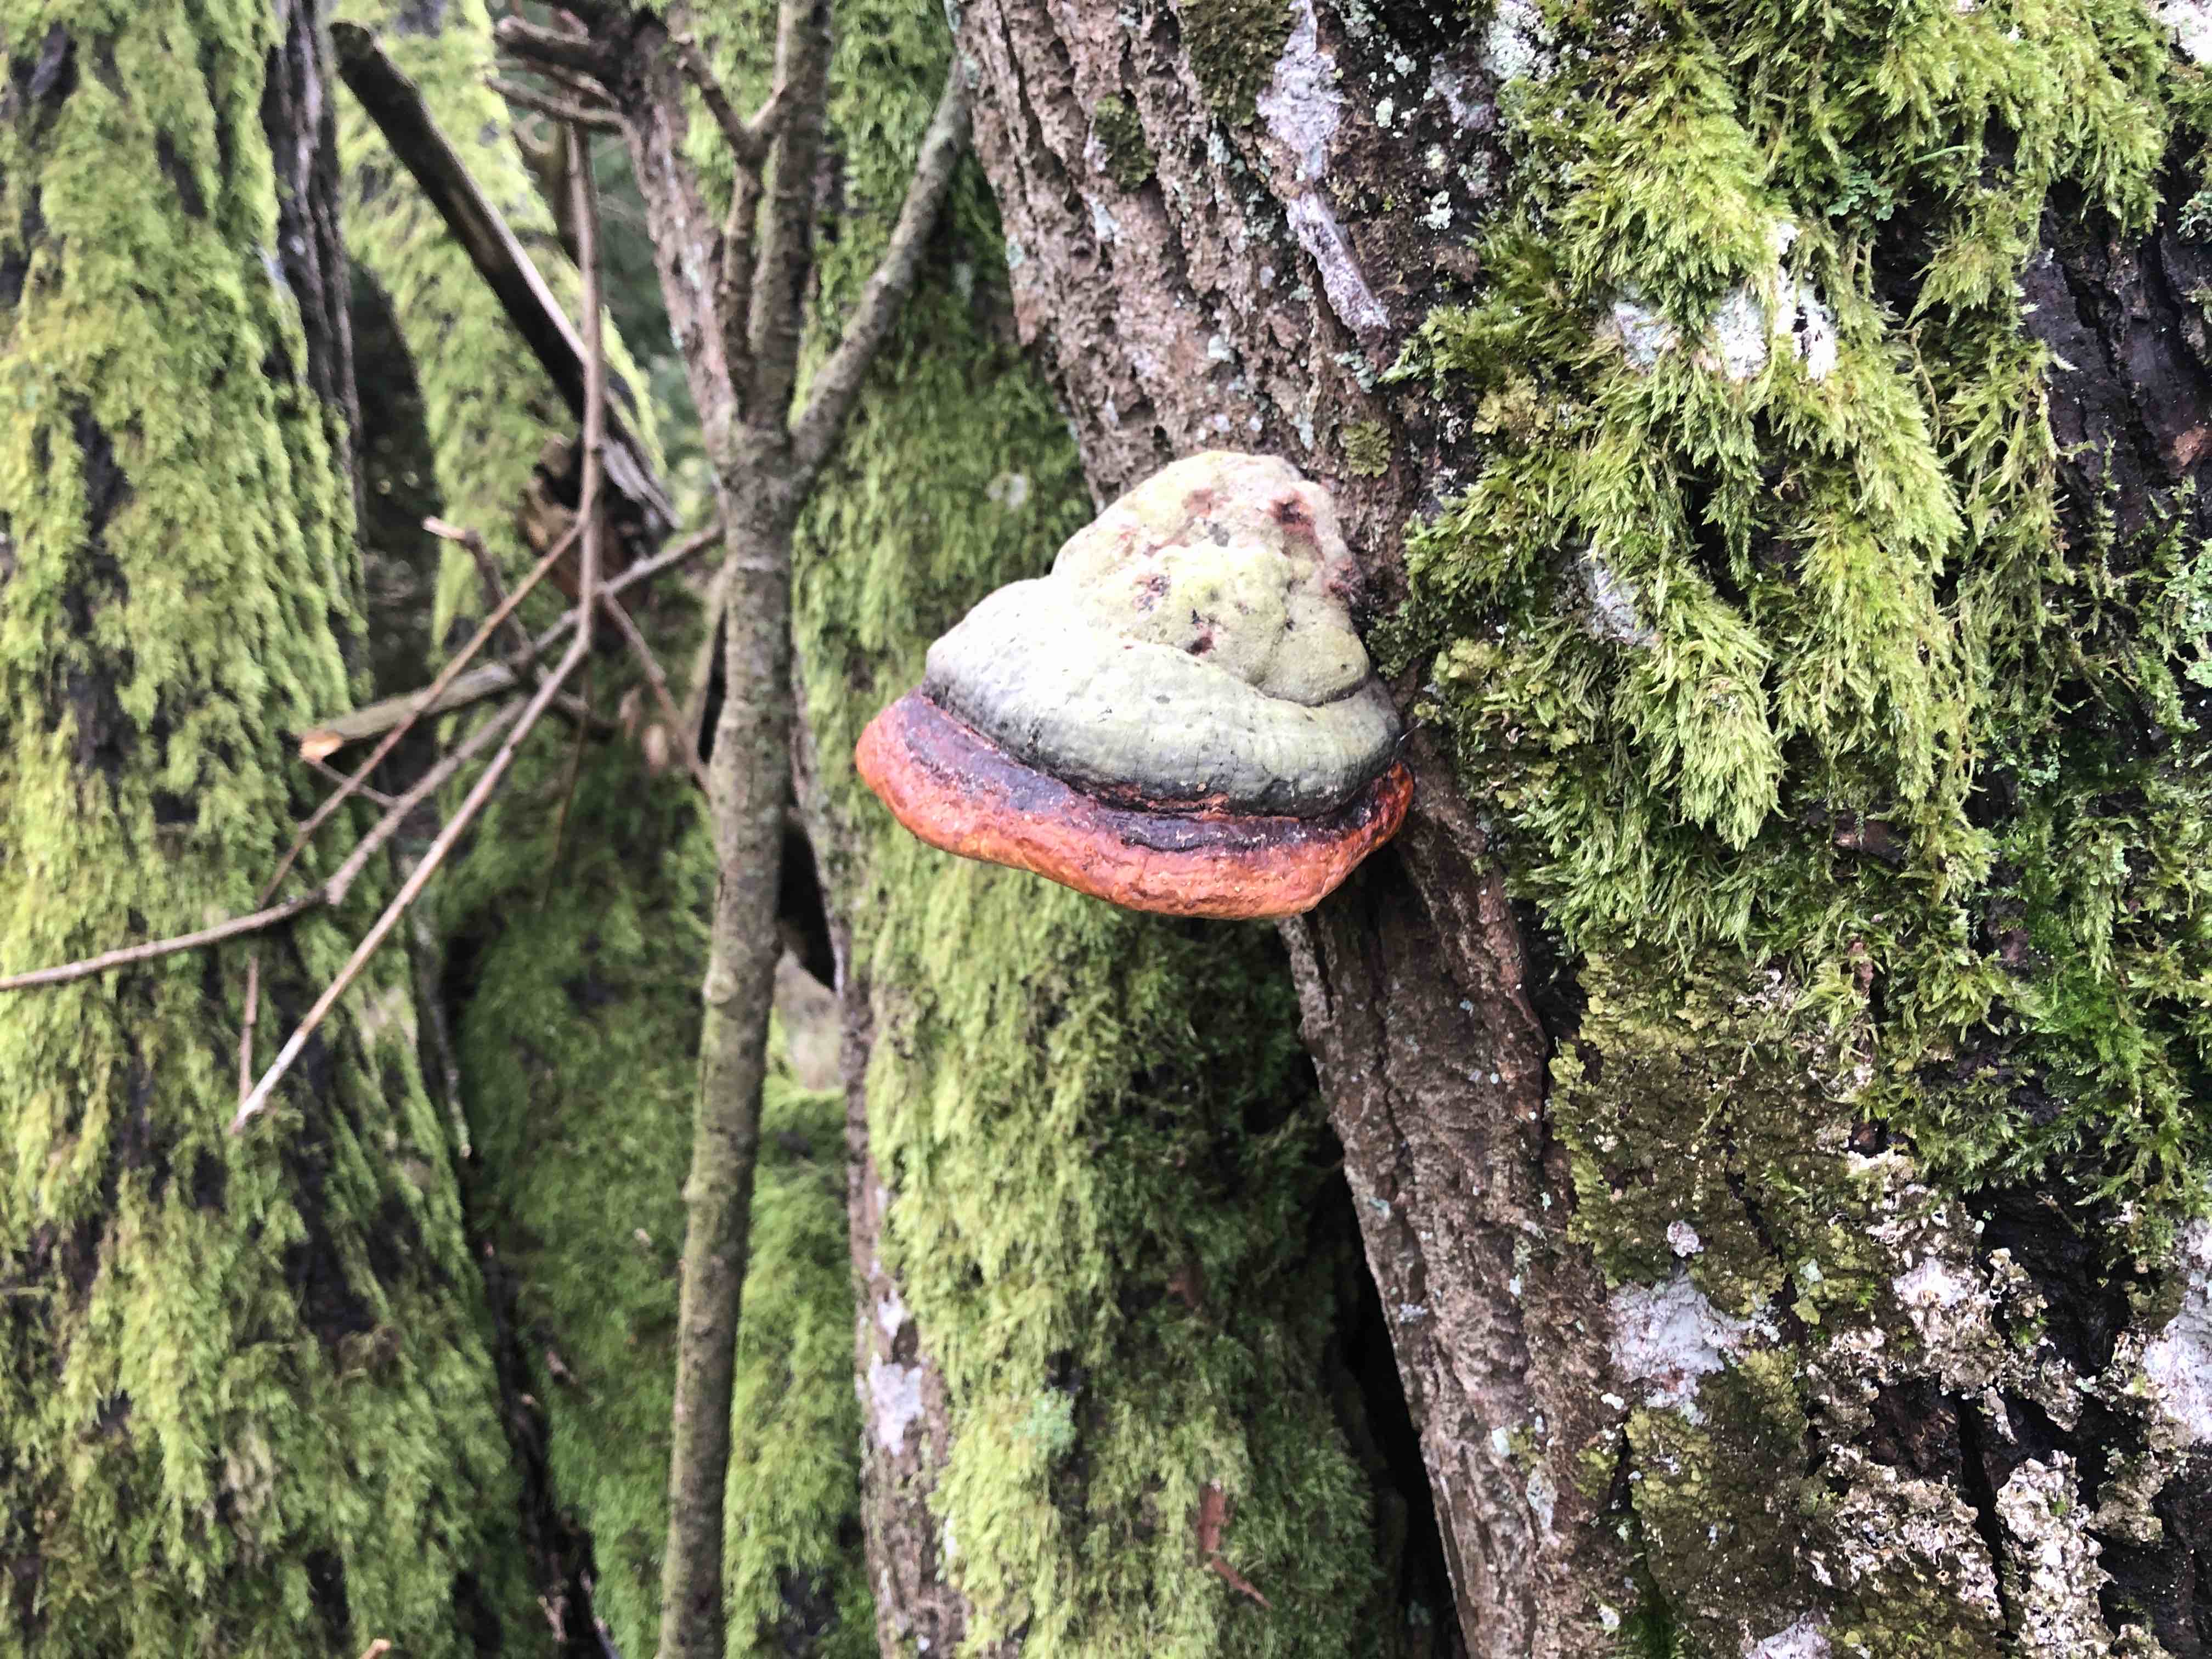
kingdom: Fungi
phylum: Basidiomycota
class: Agaricomycetes
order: Polyporales
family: Fomitopsidaceae
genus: Fomitopsis
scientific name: Fomitopsis pinicola
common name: randbæltet hovporesvamp
